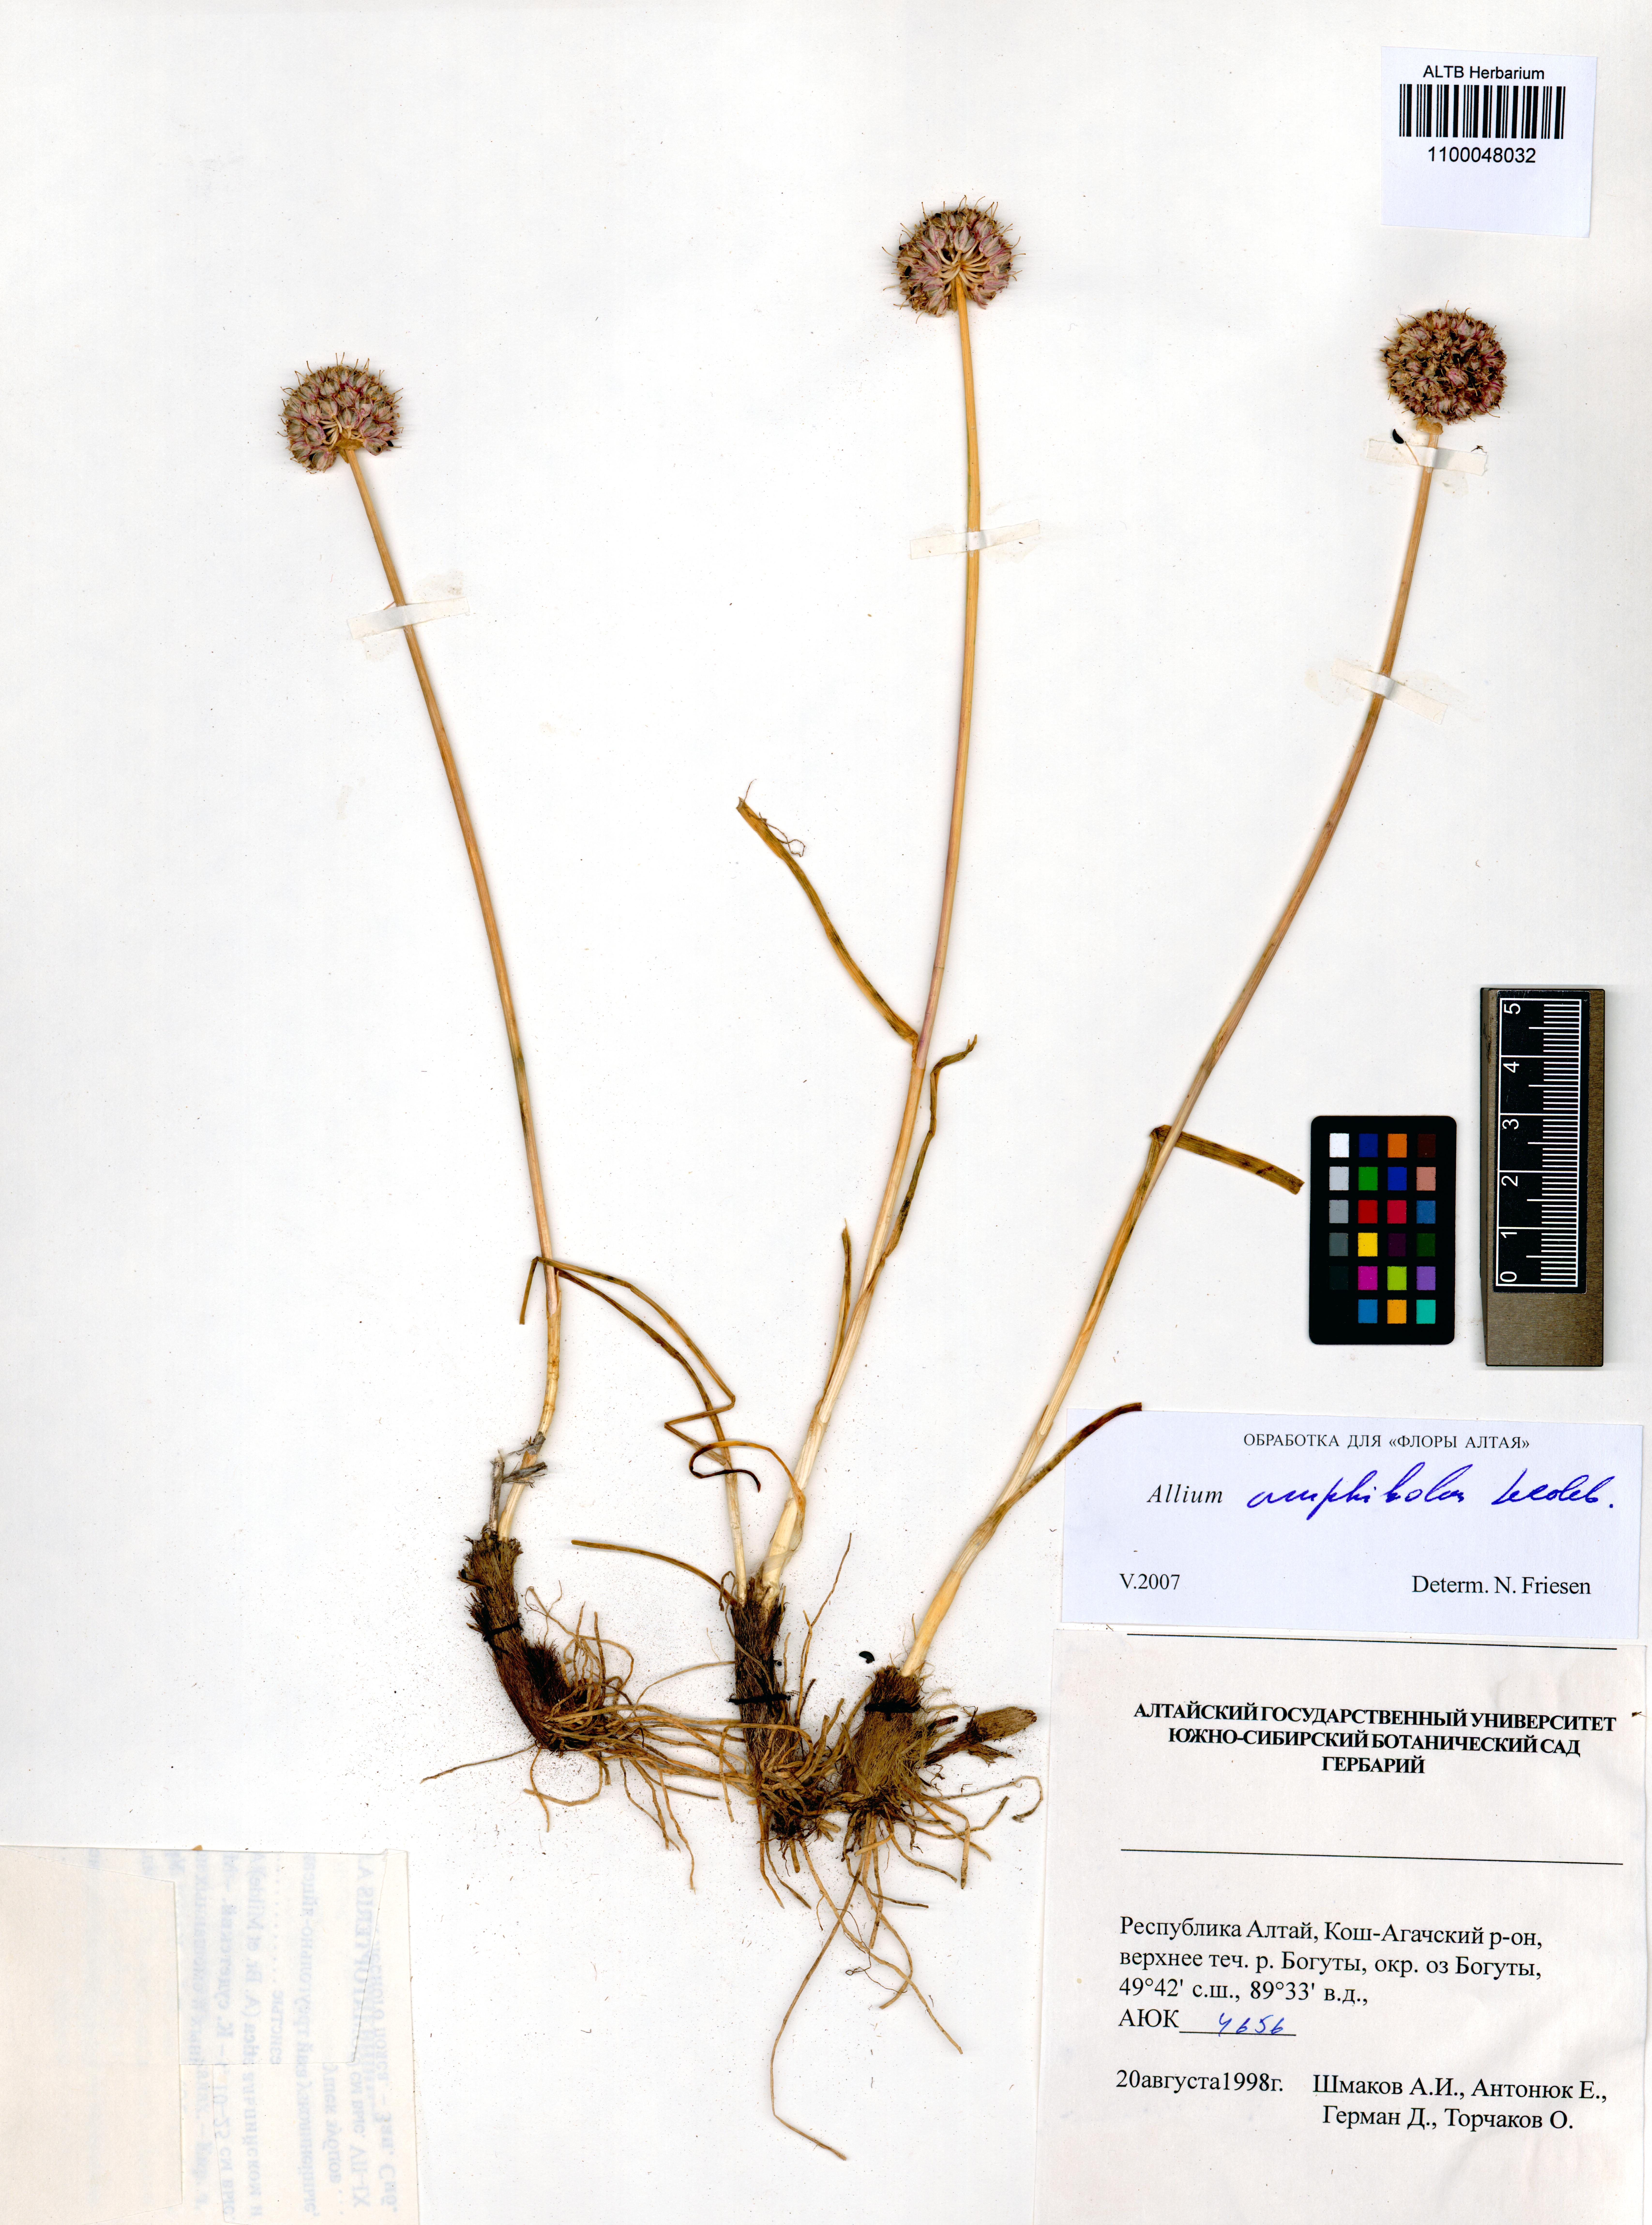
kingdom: Plantae
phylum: Tracheophyta
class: Liliopsida
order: Asparagales
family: Amaryllidaceae
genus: Allium
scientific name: Allium amphibolum
